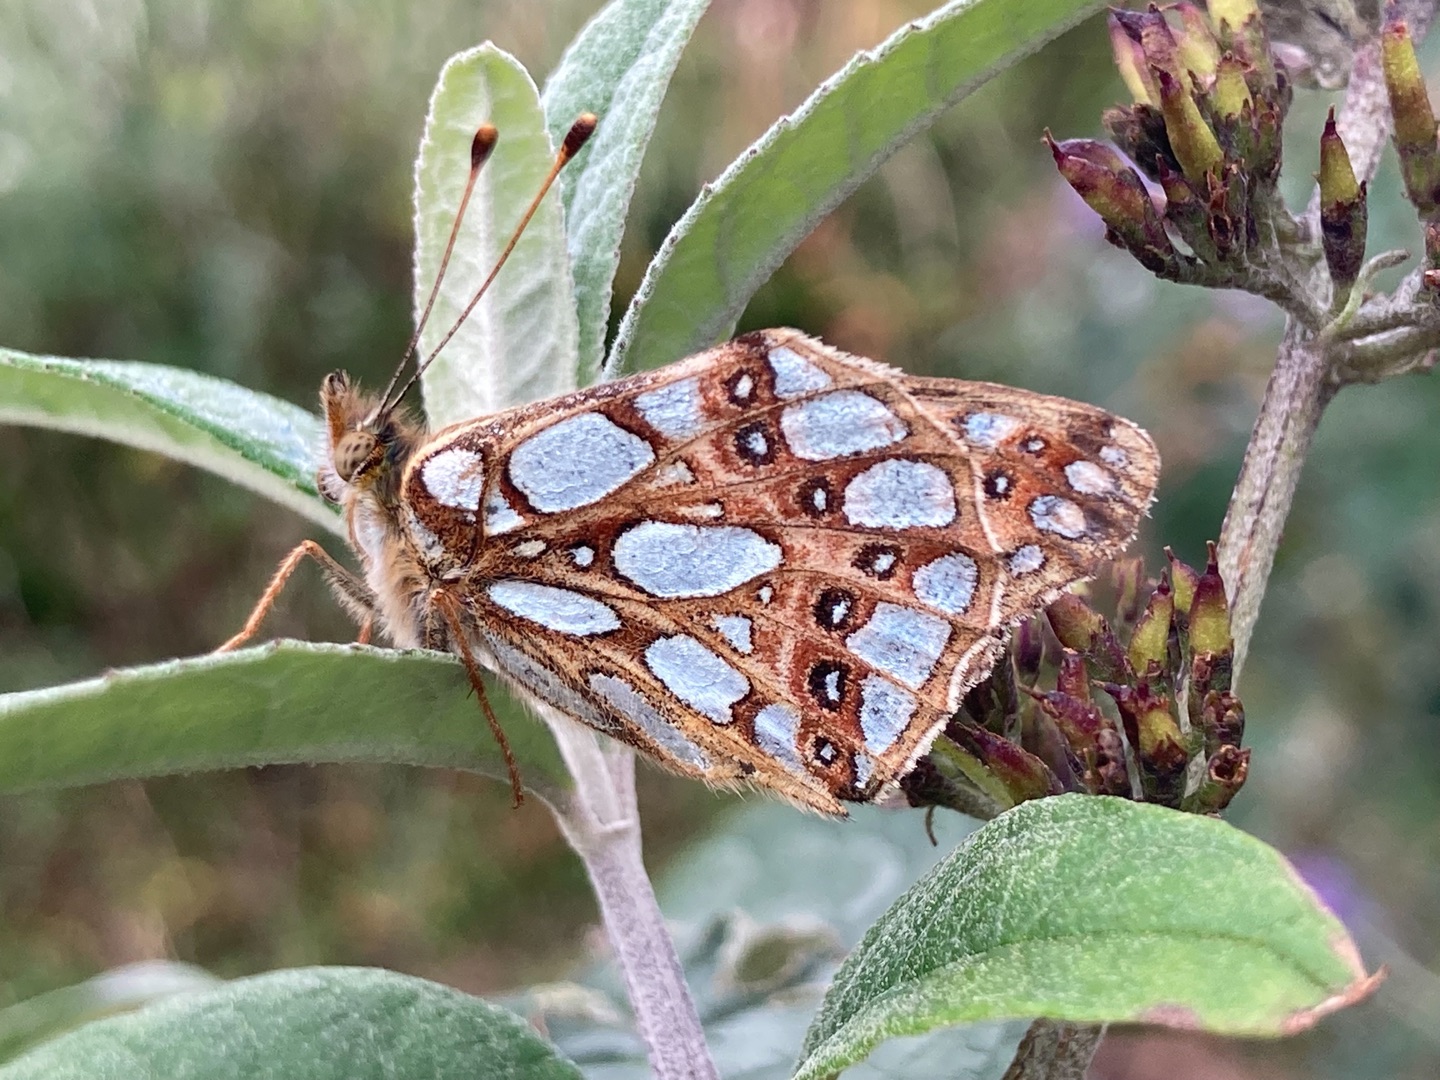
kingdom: Animalia
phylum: Arthropoda
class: Insecta
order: Lepidoptera
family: Nymphalidae
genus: Issoria
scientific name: Issoria lathonia
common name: Storplettet perlemorsommerfugl
